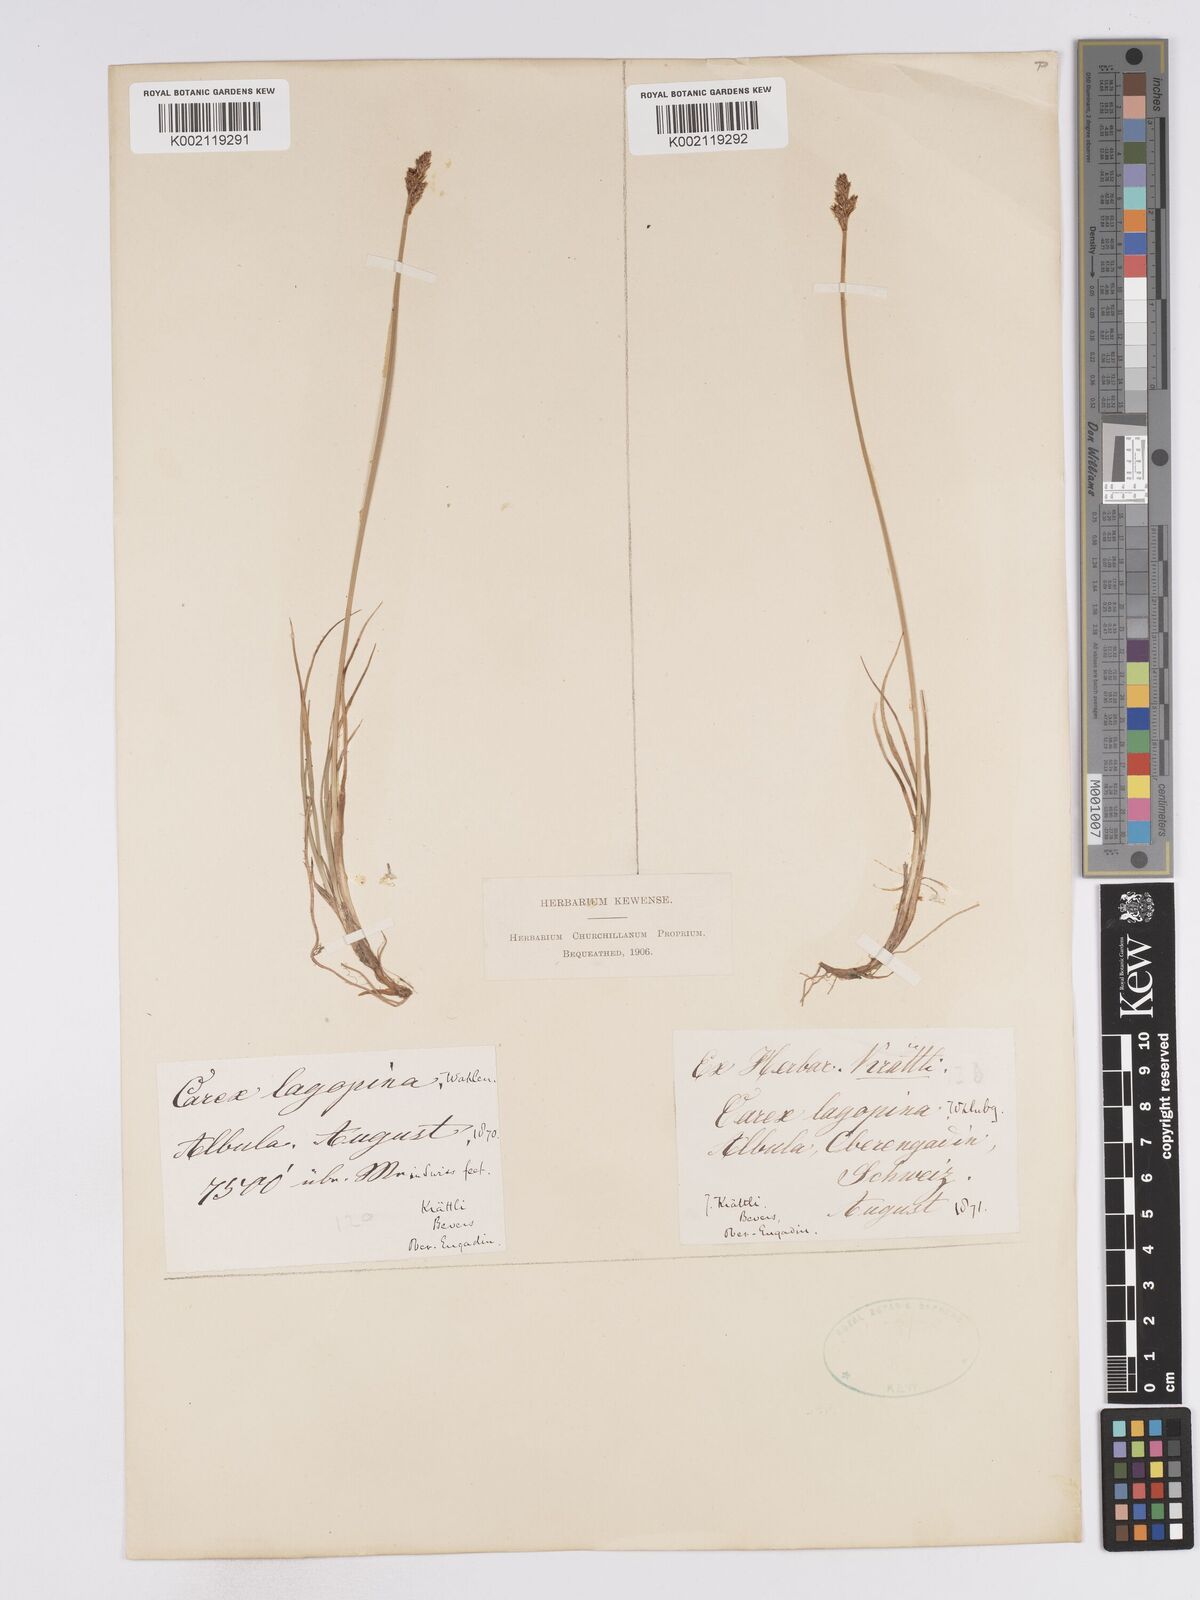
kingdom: Plantae
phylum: Tracheophyta
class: Liliopsida
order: Poales
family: Cyperaceae
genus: Carex
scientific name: Carex lachenalii
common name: Hare's-foot sedge
